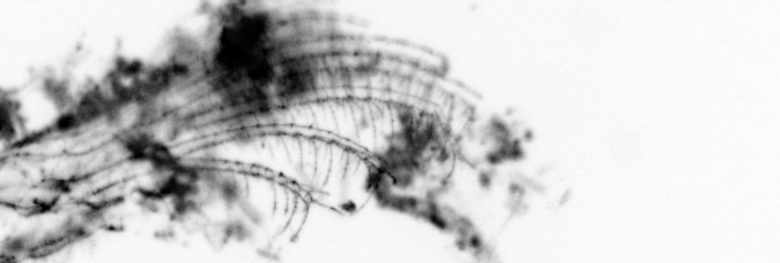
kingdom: Animalia
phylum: Chordata
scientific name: Chordata
